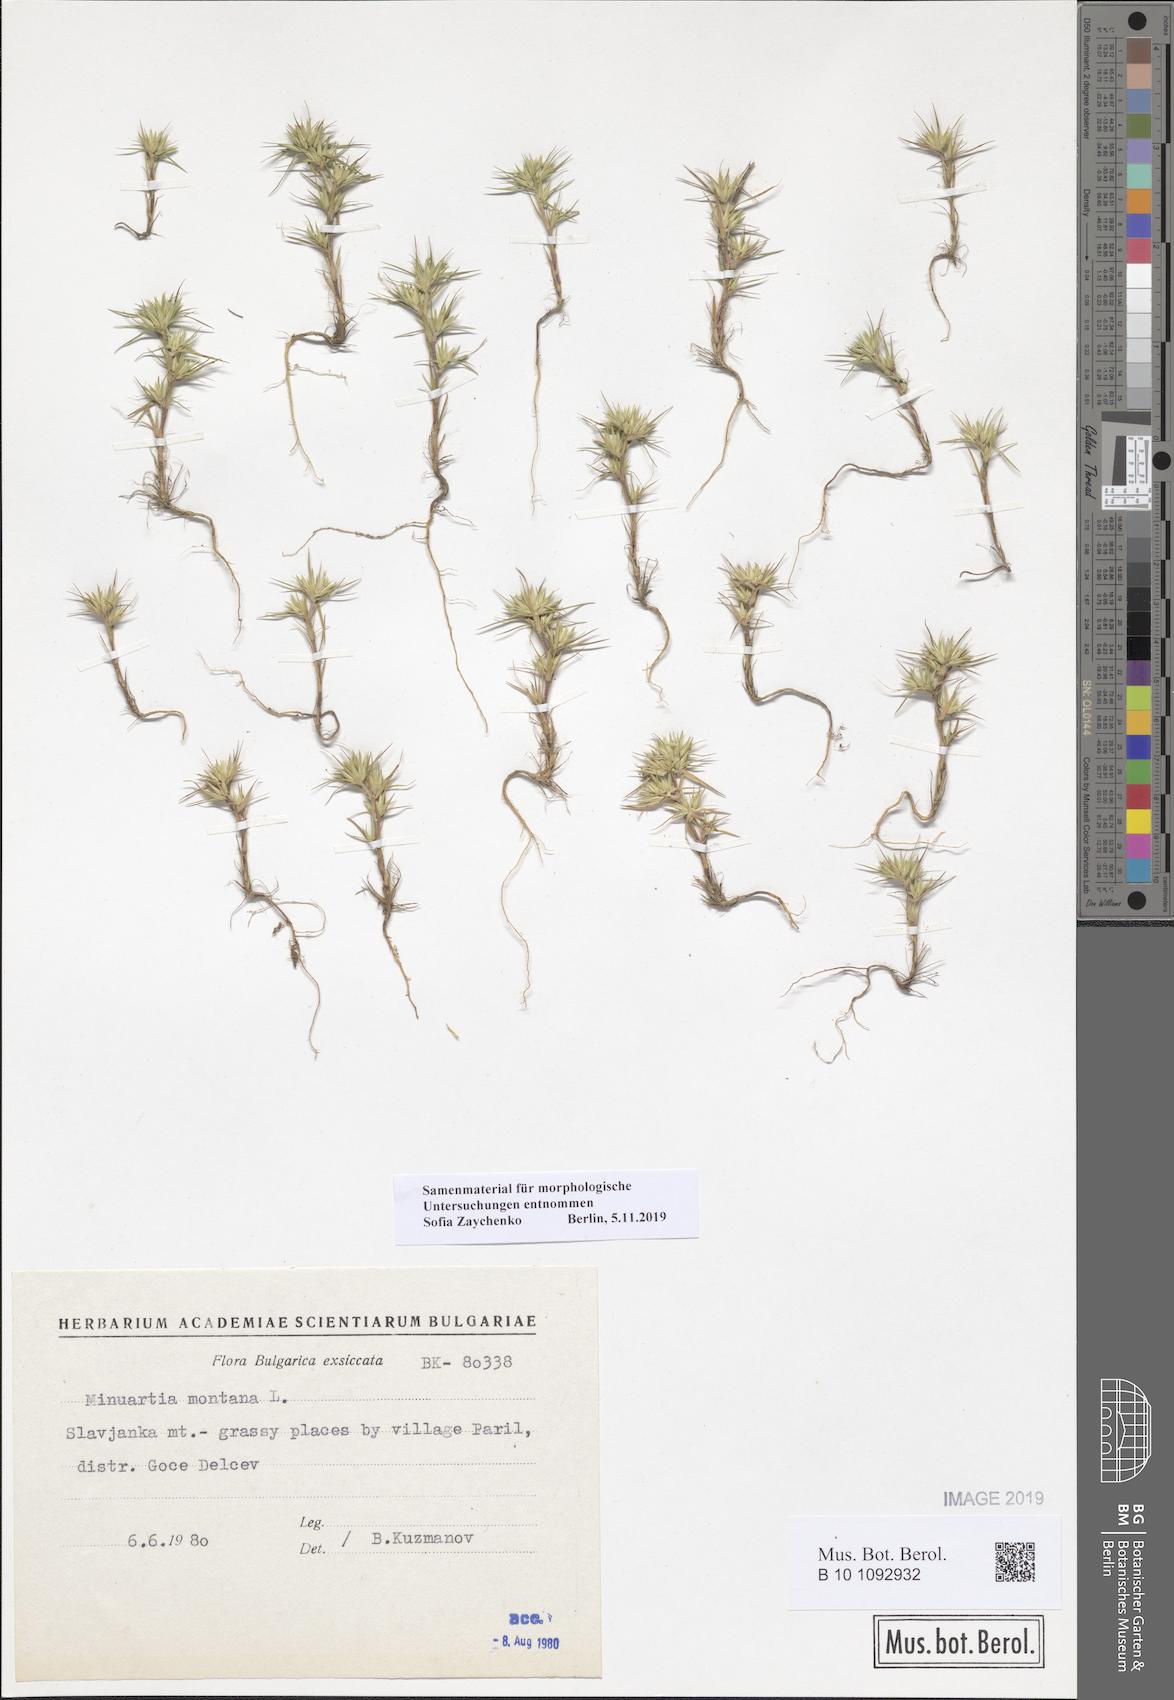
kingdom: Plantae
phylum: Tracheophyta
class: Magnoliopsida
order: Caryophyllales
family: Caryophyllaceae
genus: Minuartia
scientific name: Minuartia montana
